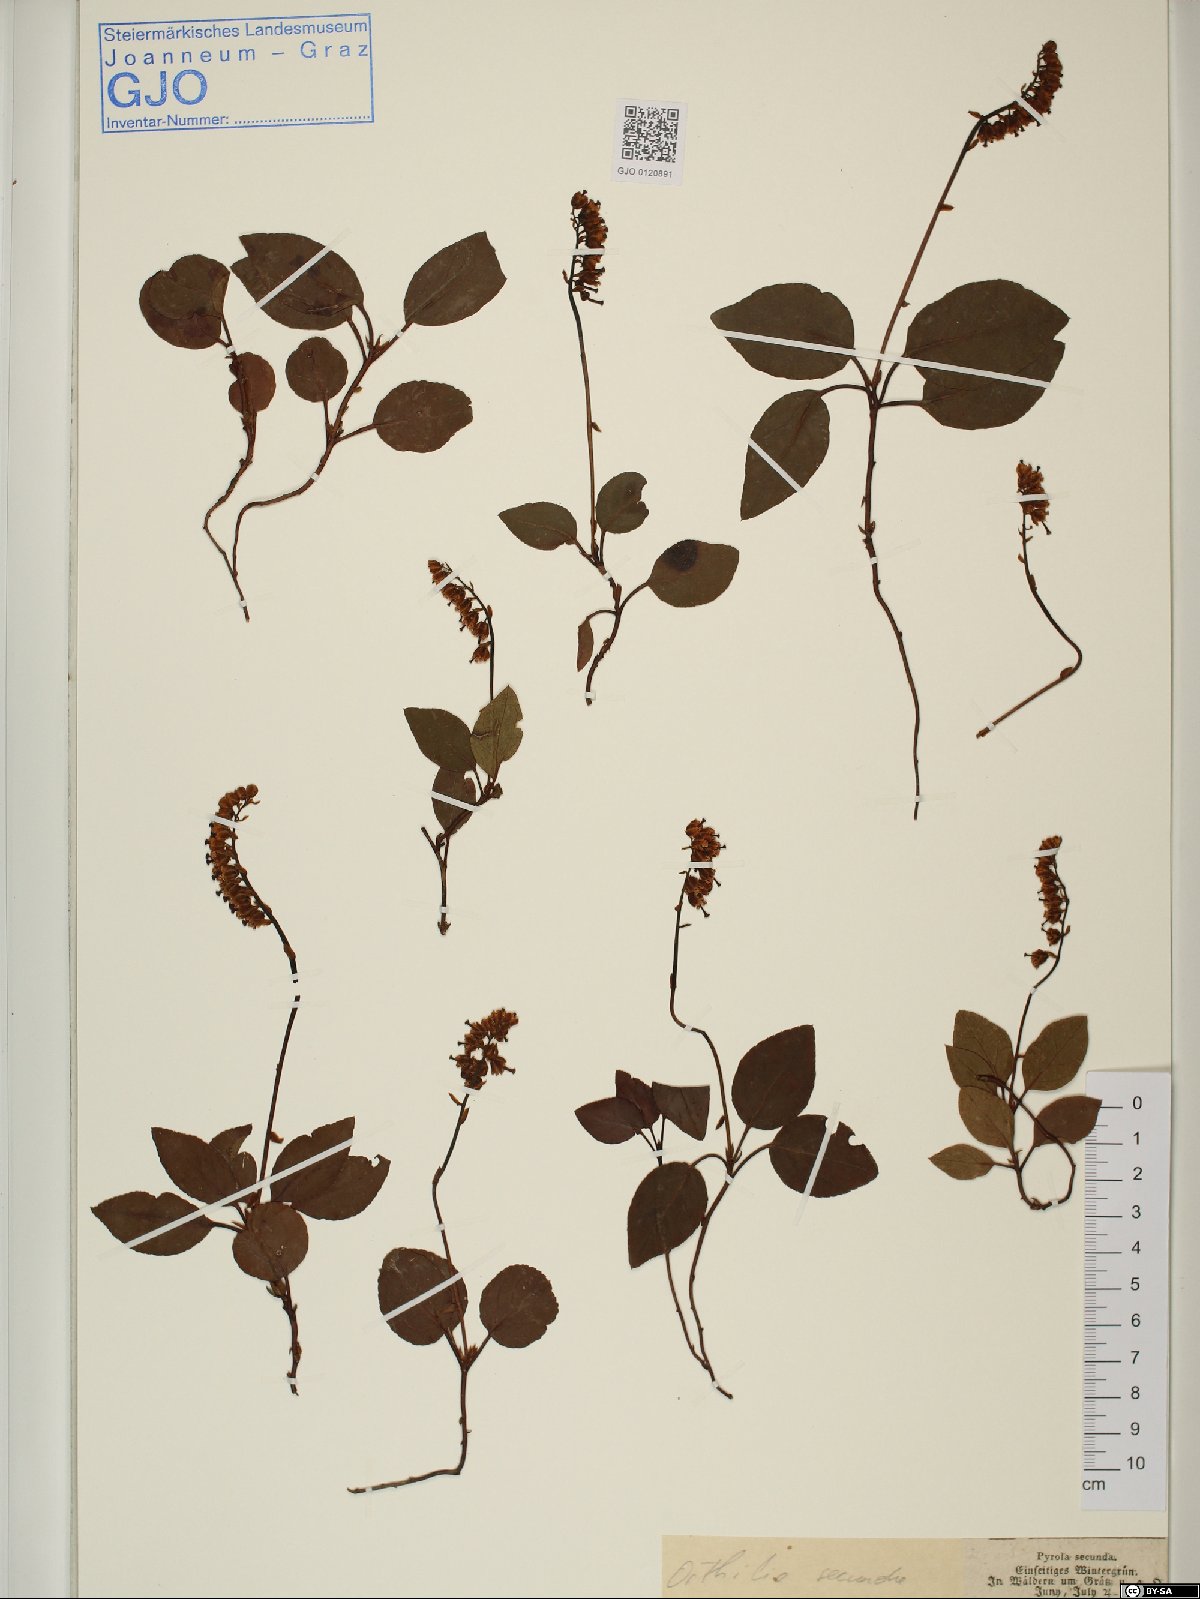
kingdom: Plantae
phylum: Tracheophyta
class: Magnoliopsida
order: Ericales
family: Ericaceae
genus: Orthilia
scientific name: Orthilia secunda
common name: One-sided orthilia
